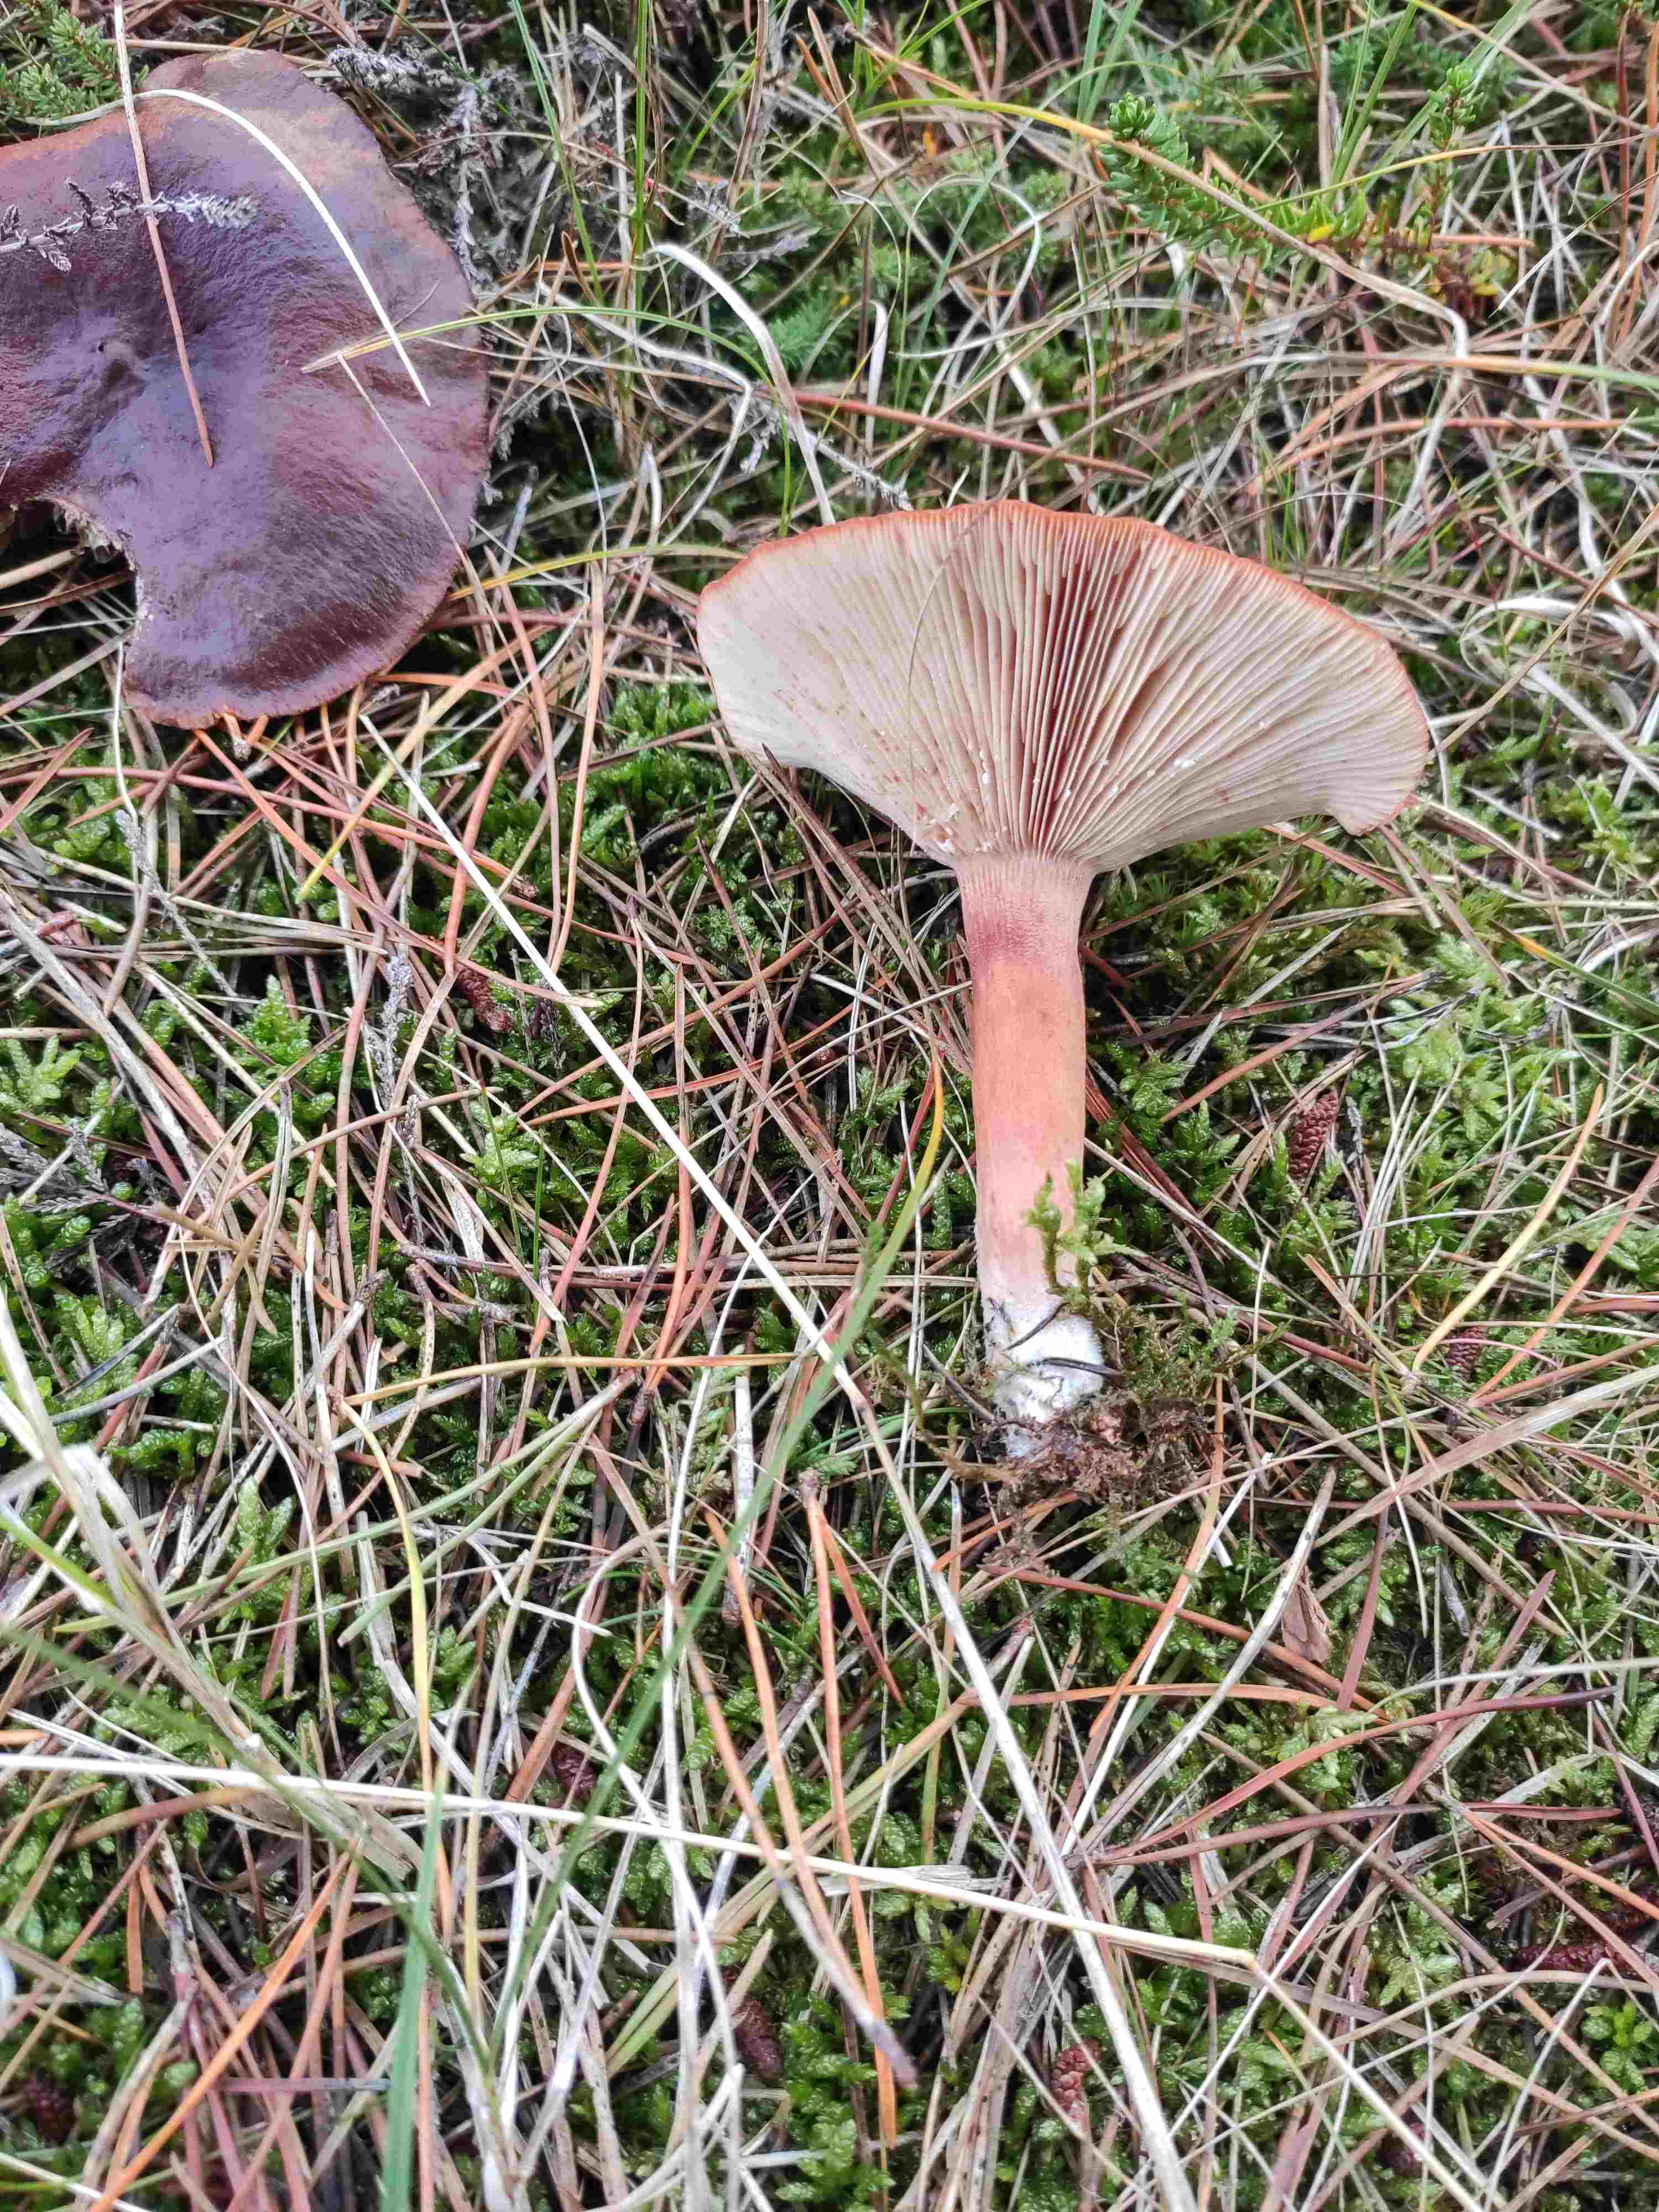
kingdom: Fungi
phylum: Basidiomycota
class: Agaricomycetes
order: Russulales
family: Russulaceae
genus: Lactarius
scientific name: Lactarius hepaticus
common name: leverbrun mælkehat
